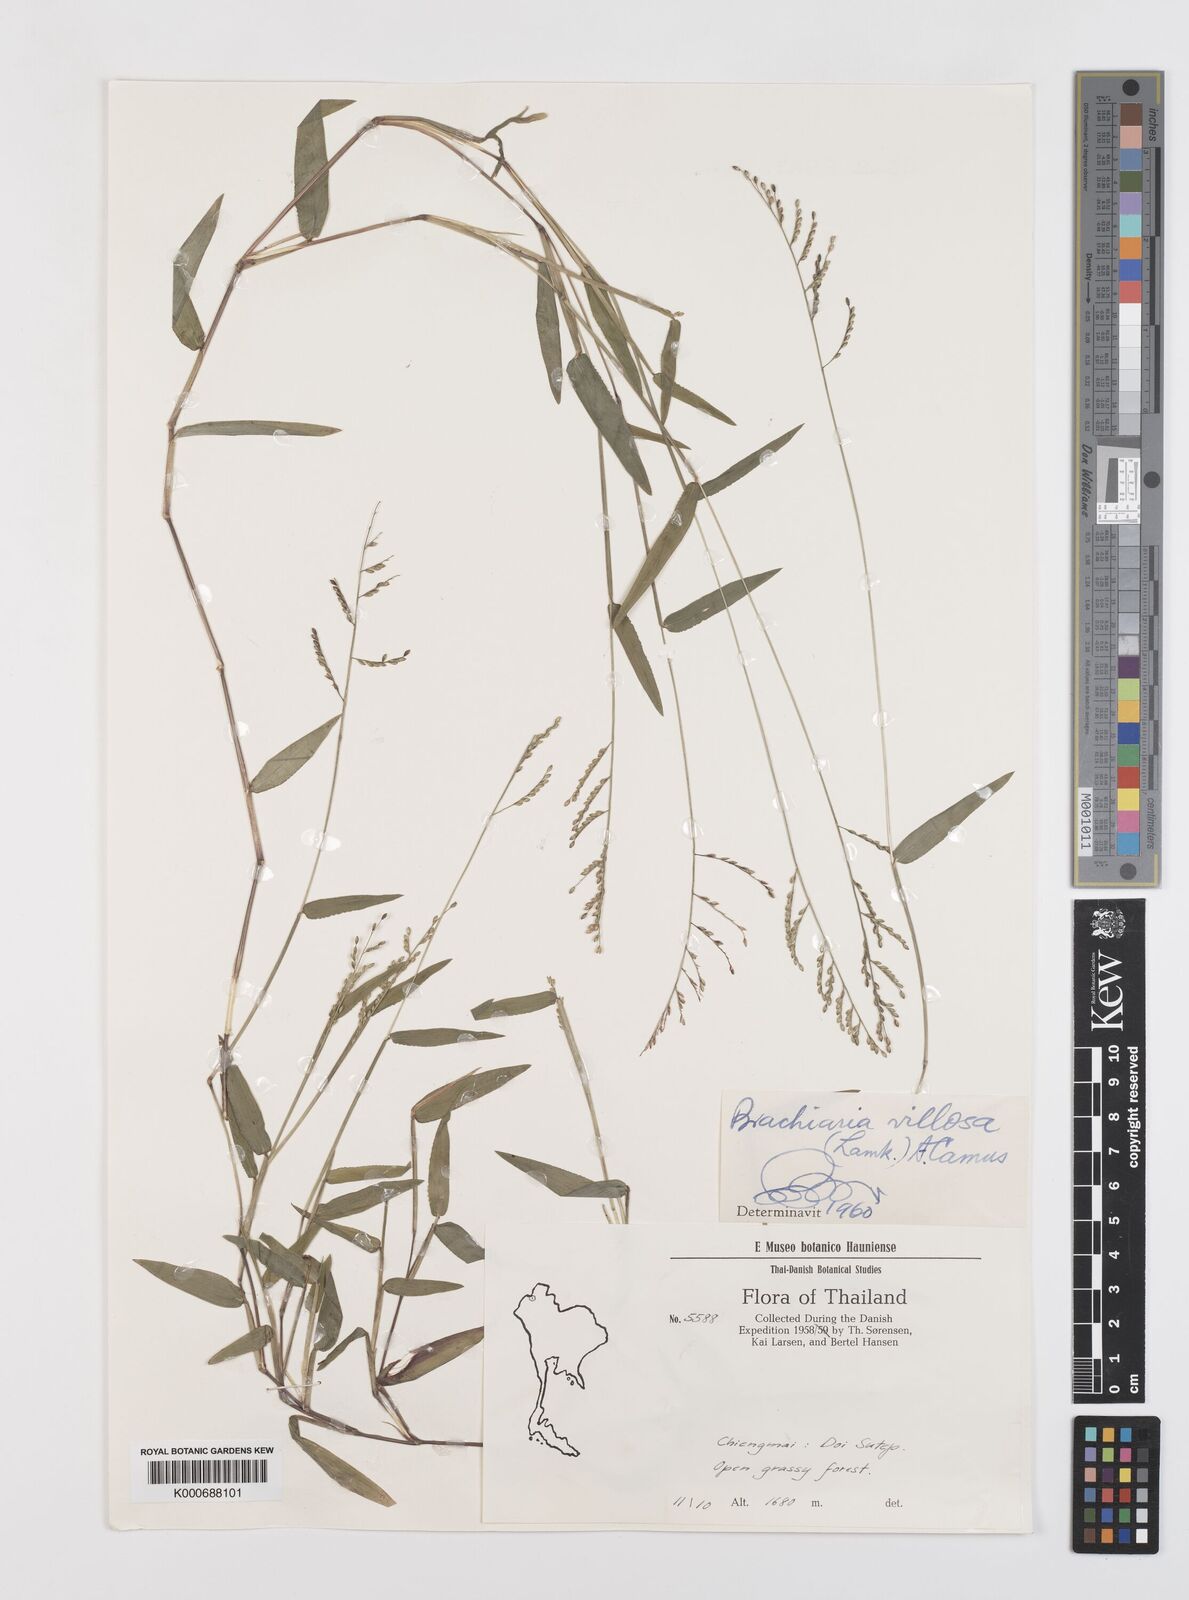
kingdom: Plantae
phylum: Tracheophyta
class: Liliopsida
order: Poales
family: Poaceae
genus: Urochloa
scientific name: Urochloa villosa
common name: Hairy signalgrass
